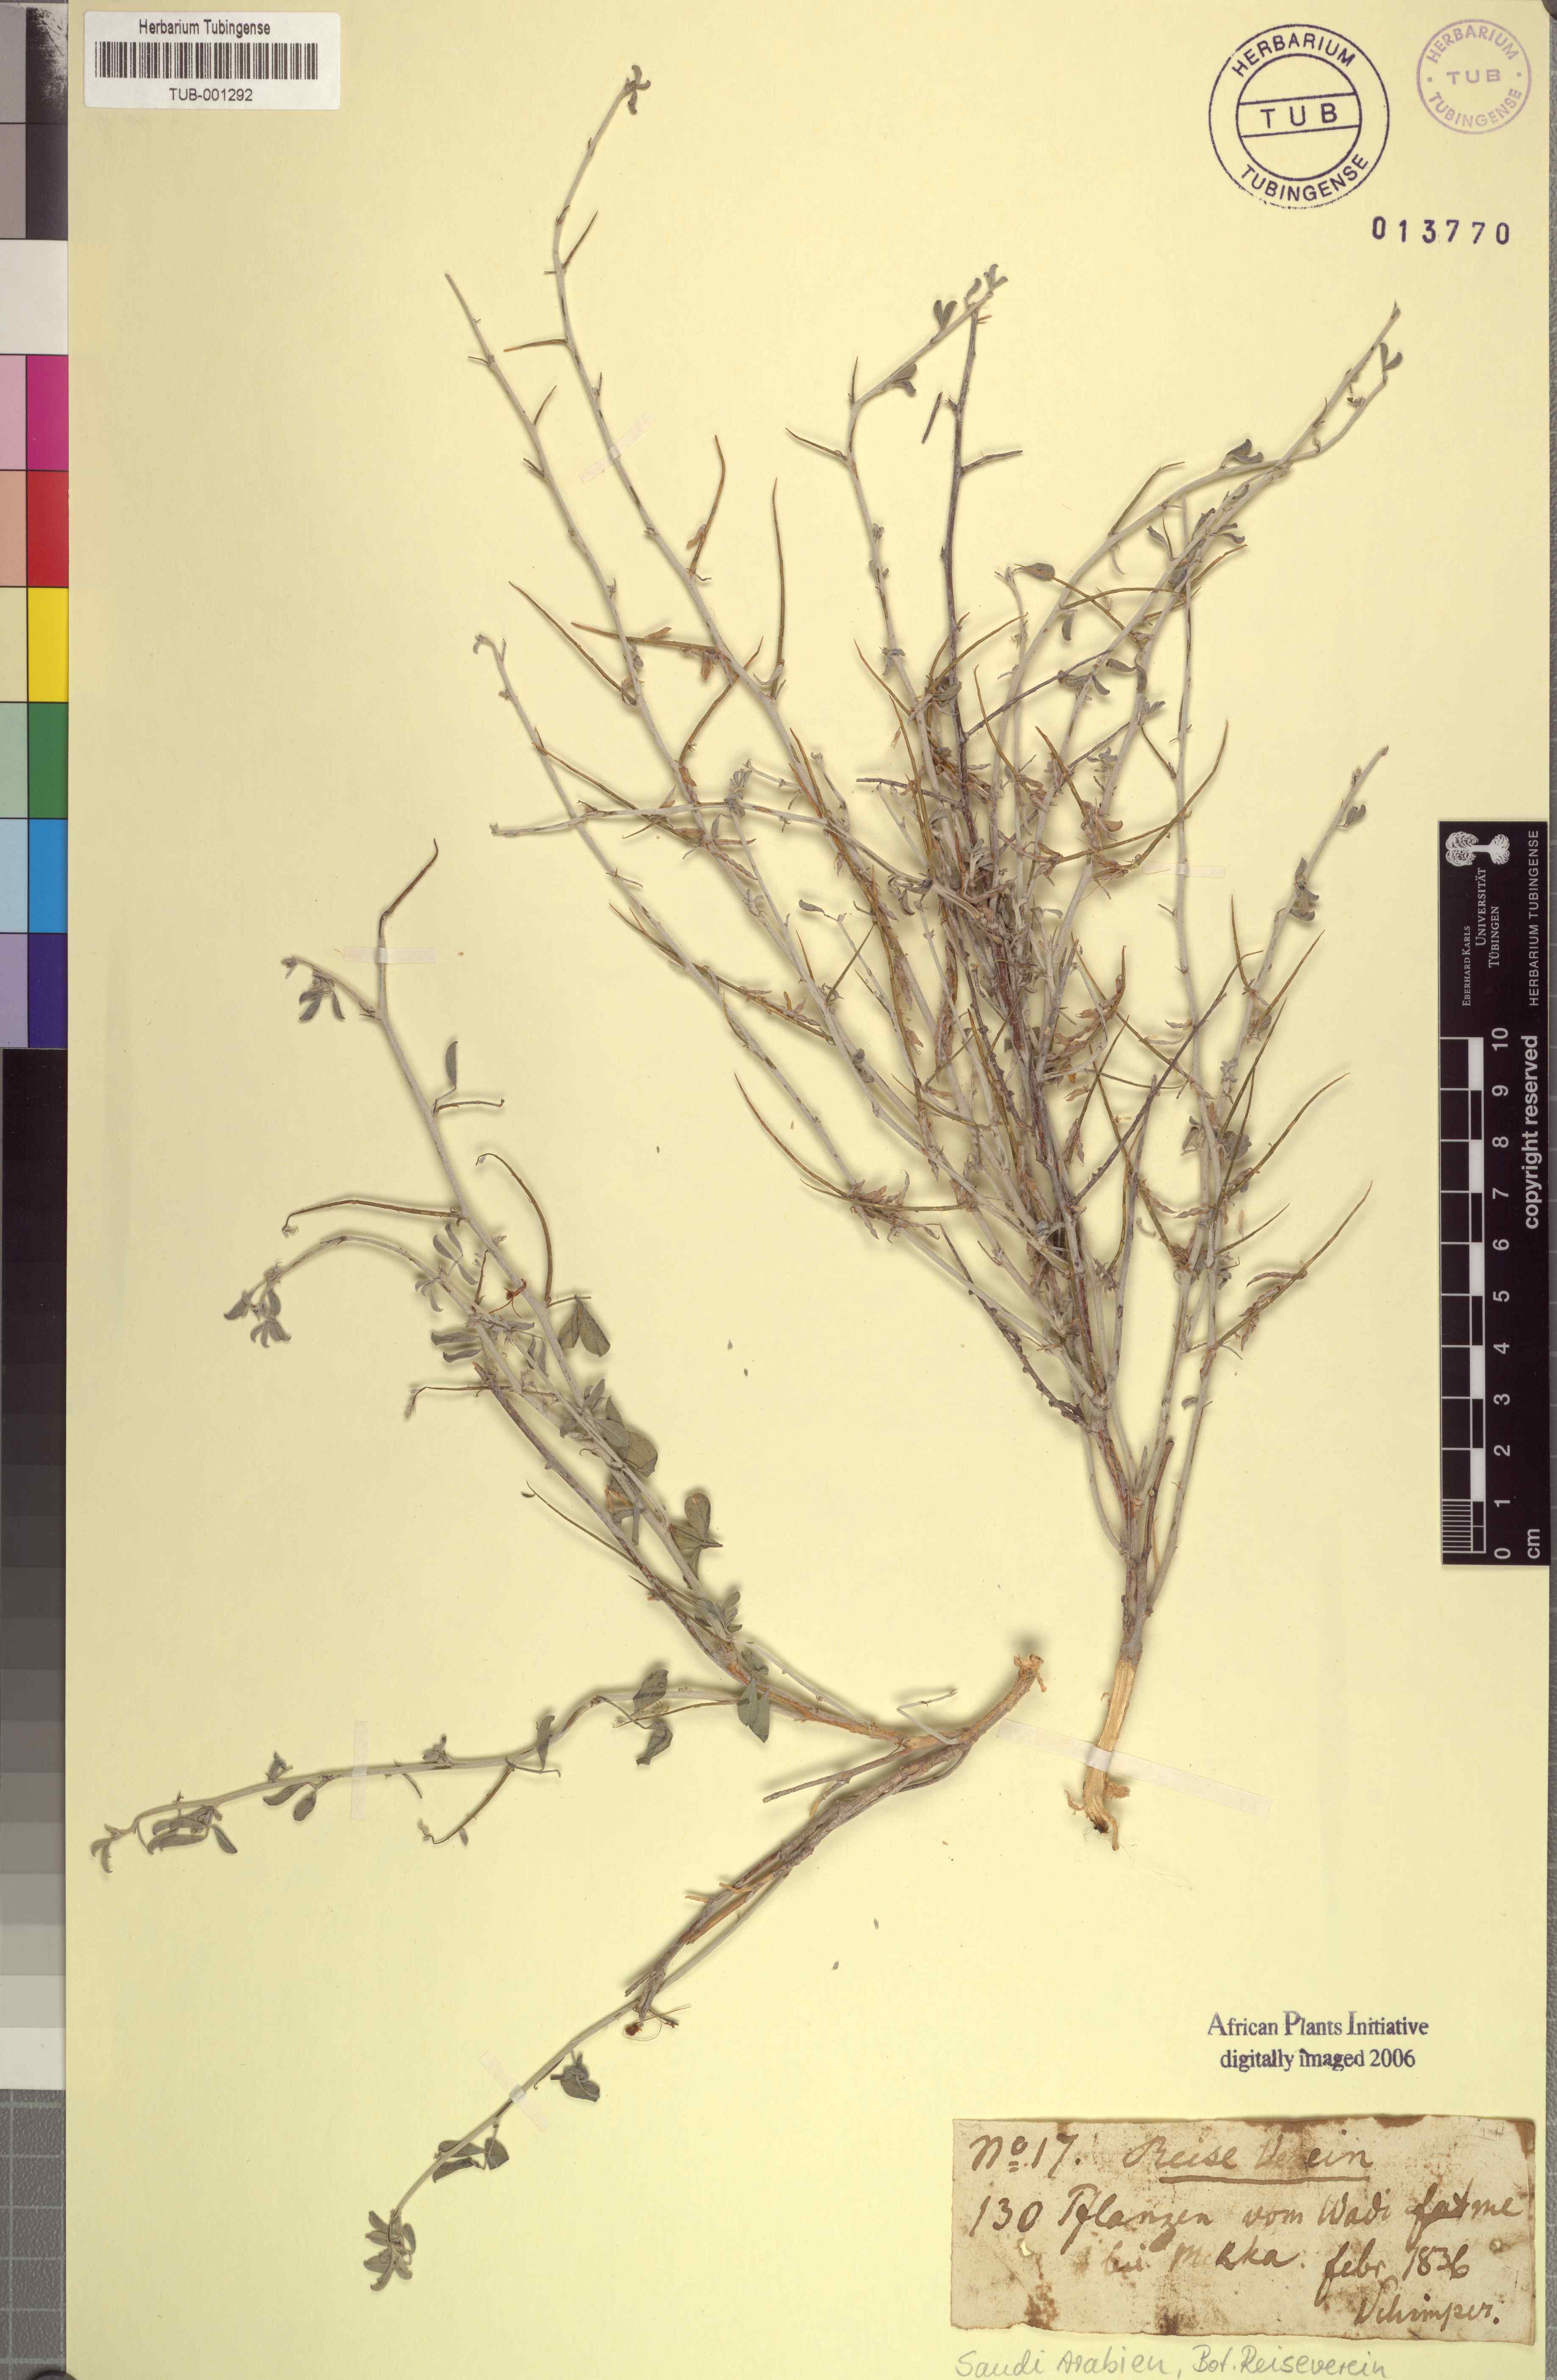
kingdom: Plantae
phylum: Tracheophyta
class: Magnoliopsida
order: Fabales
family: Fabaceae
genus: Indigofera
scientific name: Indigofera spiniflora
